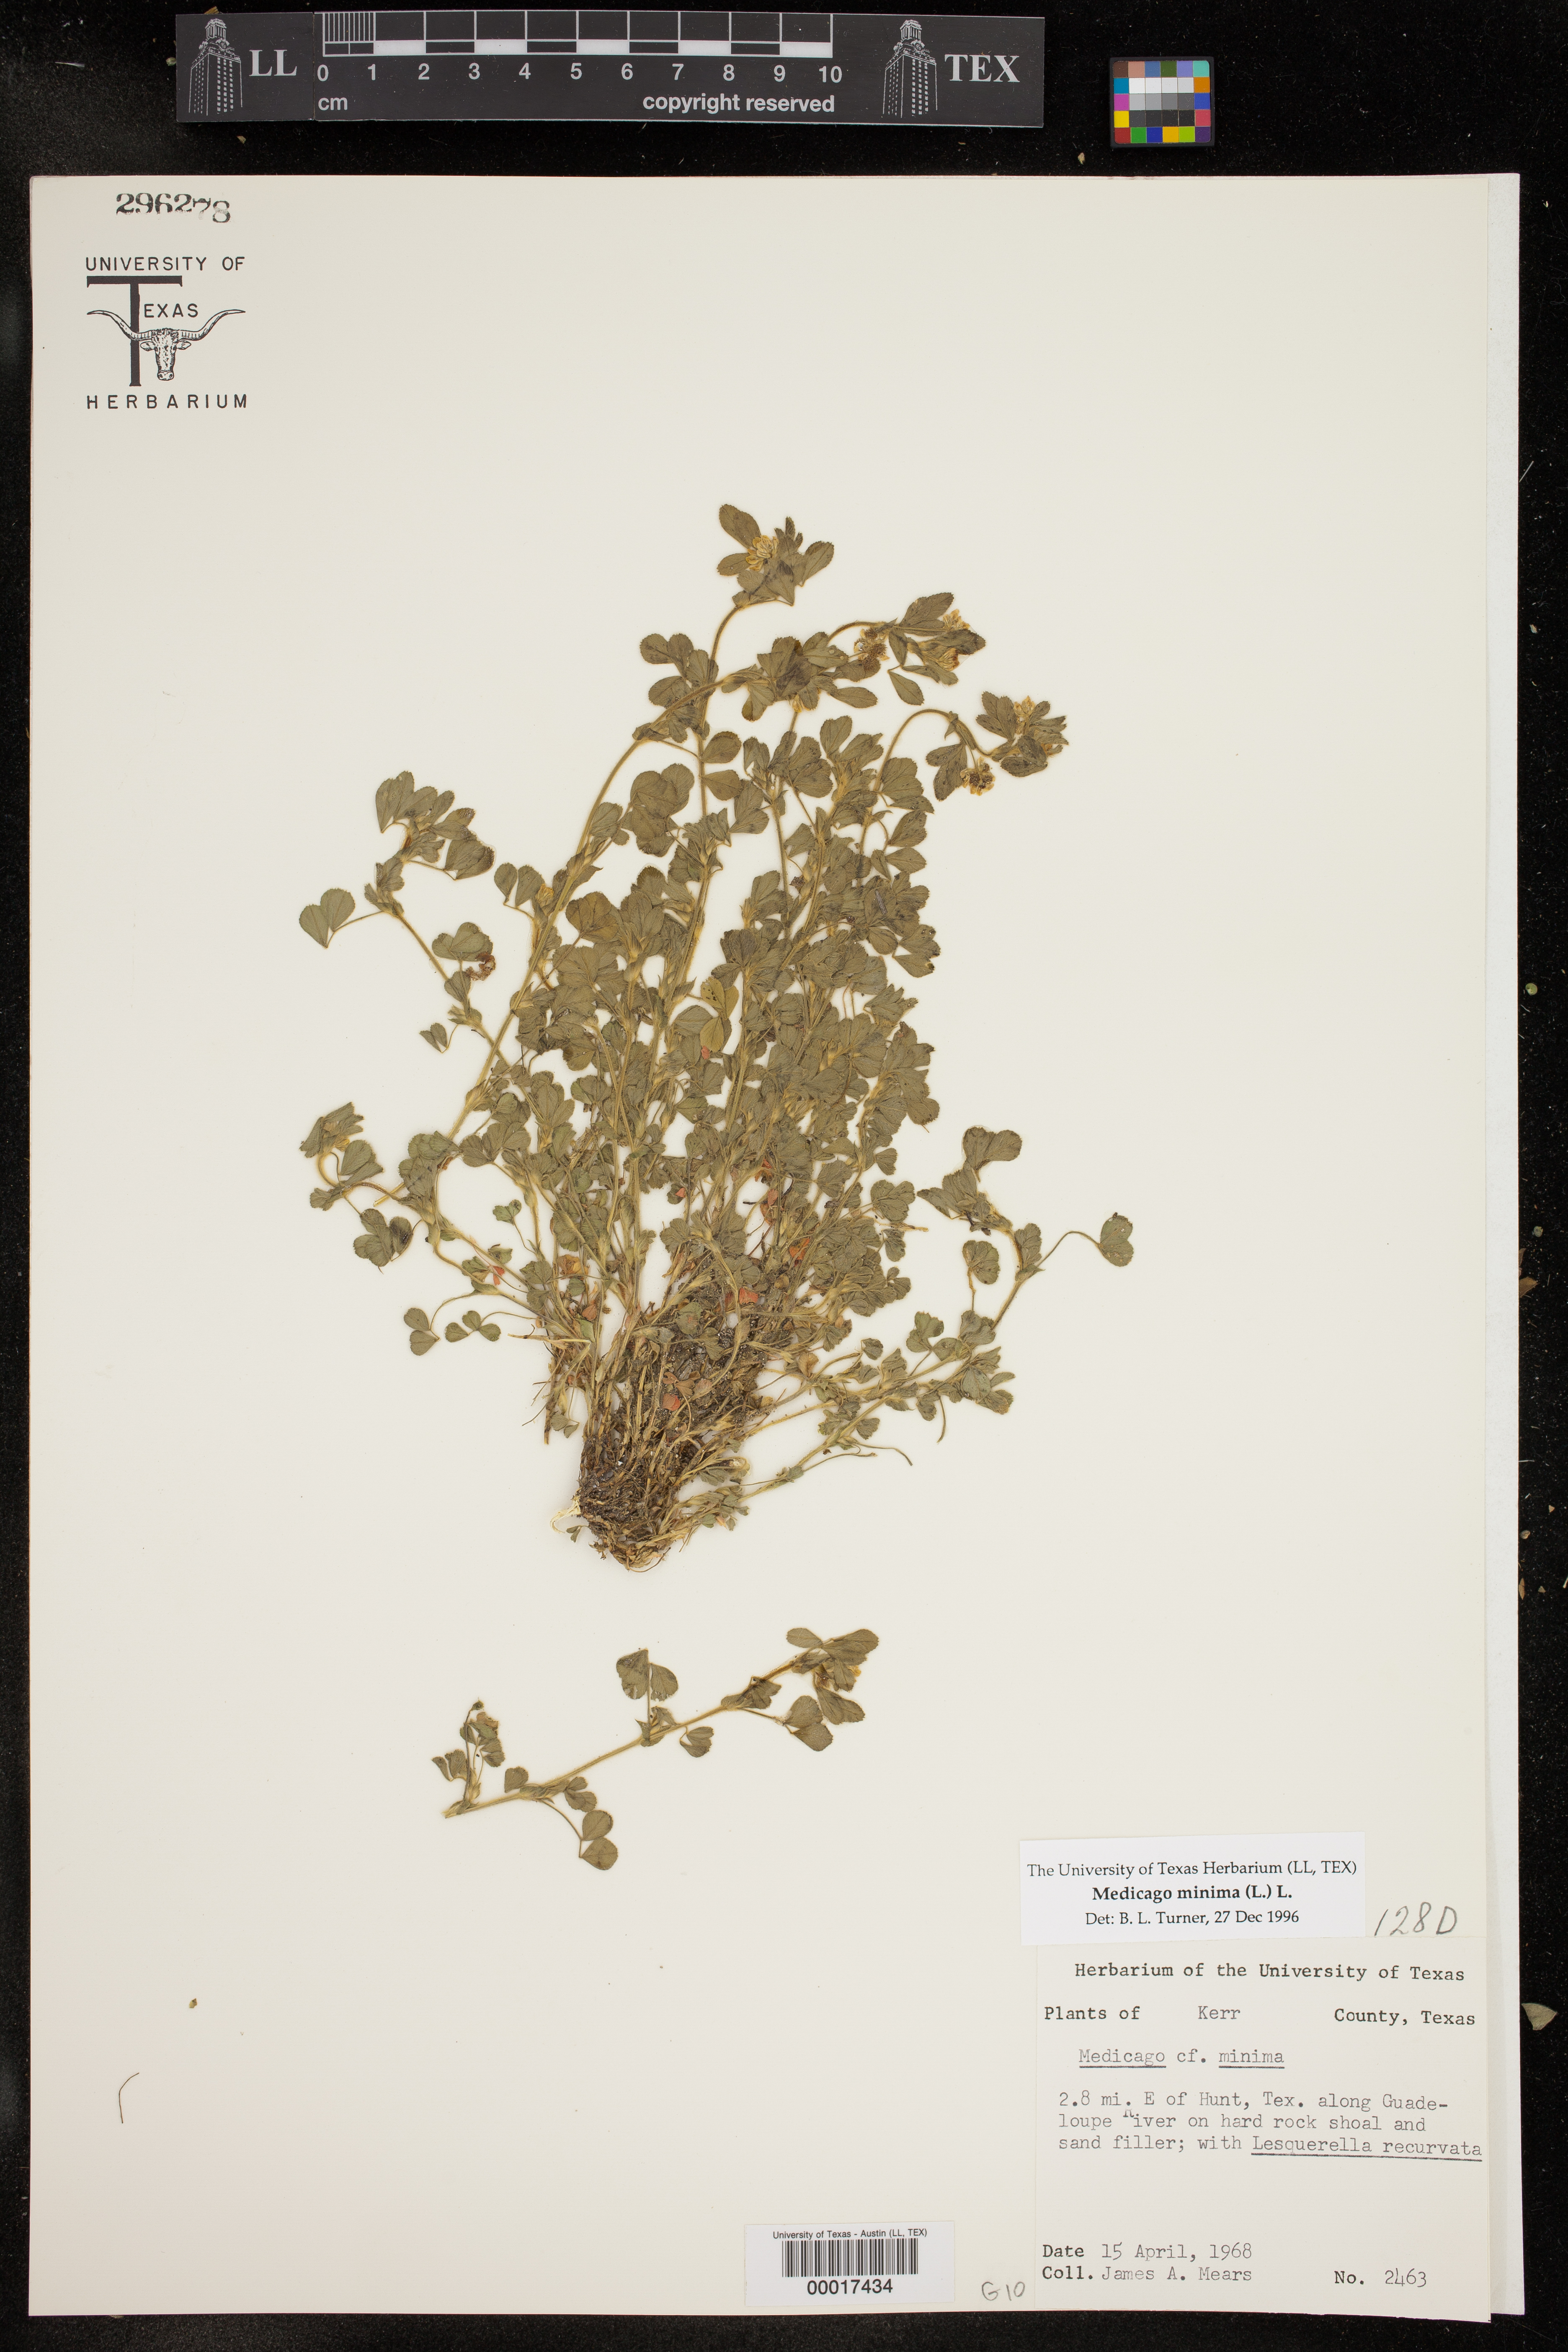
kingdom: Plantae
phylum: Tracheophyta
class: Magnoliopsida
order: Fabales
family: Fabaceae
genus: Medicago
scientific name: Medicago minima
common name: Little bur-clover
